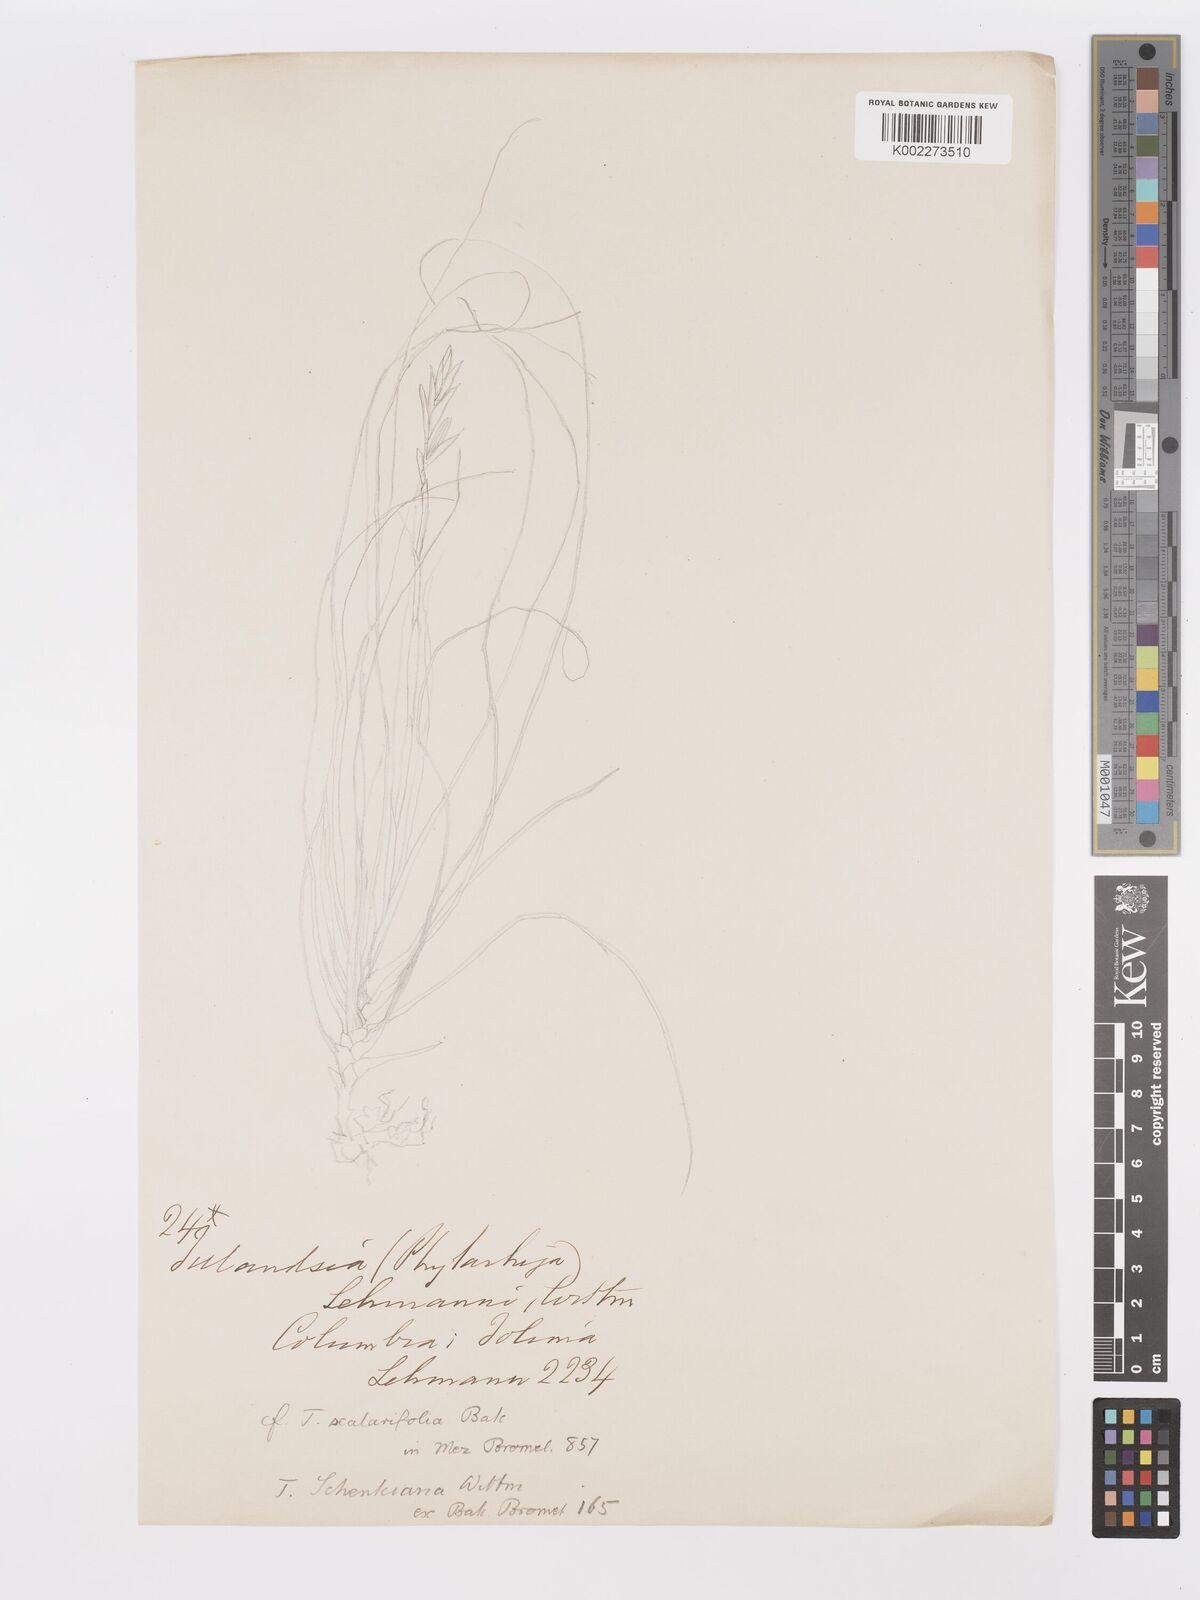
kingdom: Plantae
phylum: Tracheophyta
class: Liliopsida
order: Poales
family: Bromeliaceae
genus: Tillandsia
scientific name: Tillandsia streptocarpa
